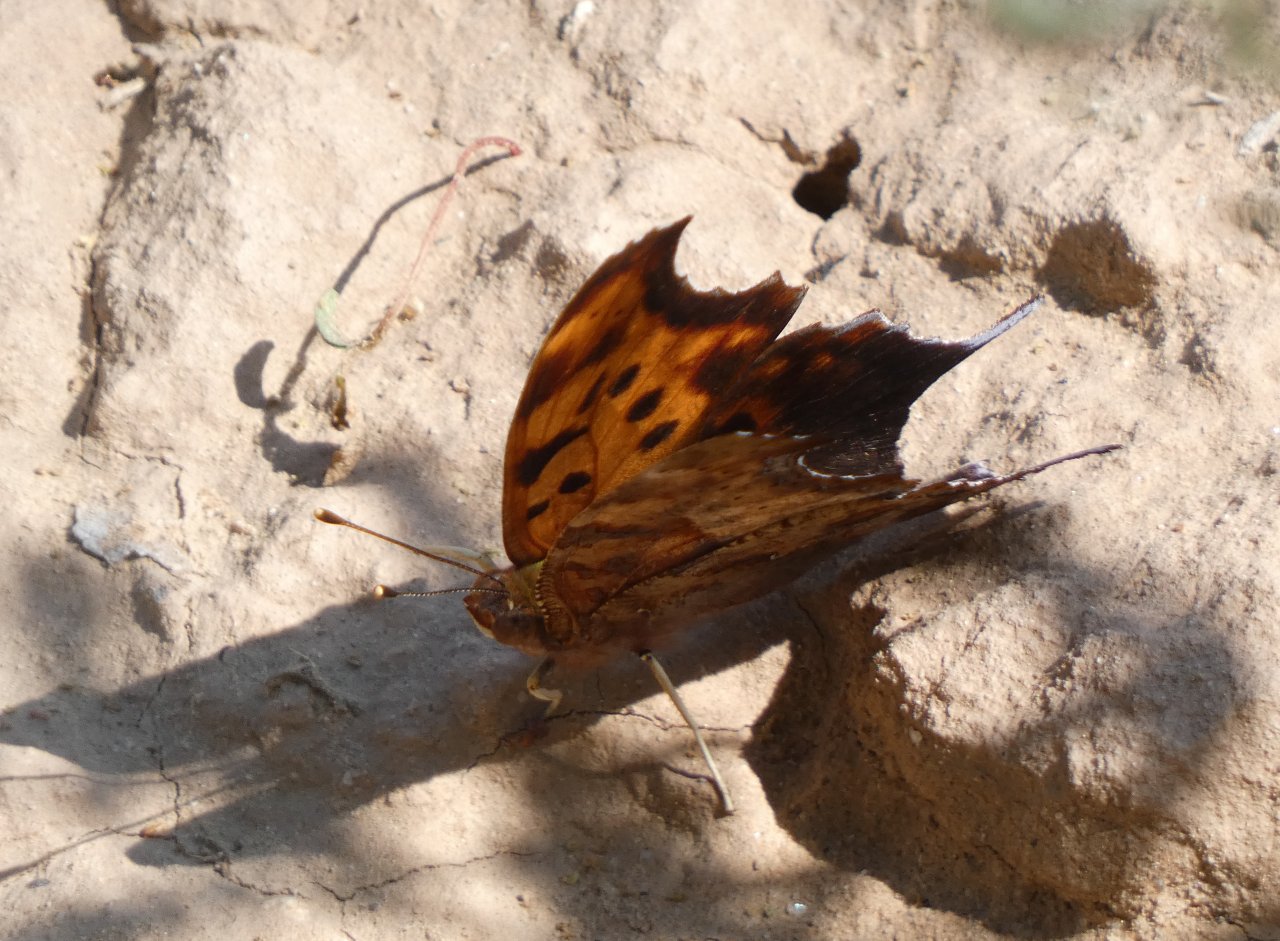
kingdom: Animalia
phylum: Arthropoda
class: Insecta
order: Lepidoptera
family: Nymphalidae
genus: Polygonia
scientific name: Polygonia interrogationis
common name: Question Mark
